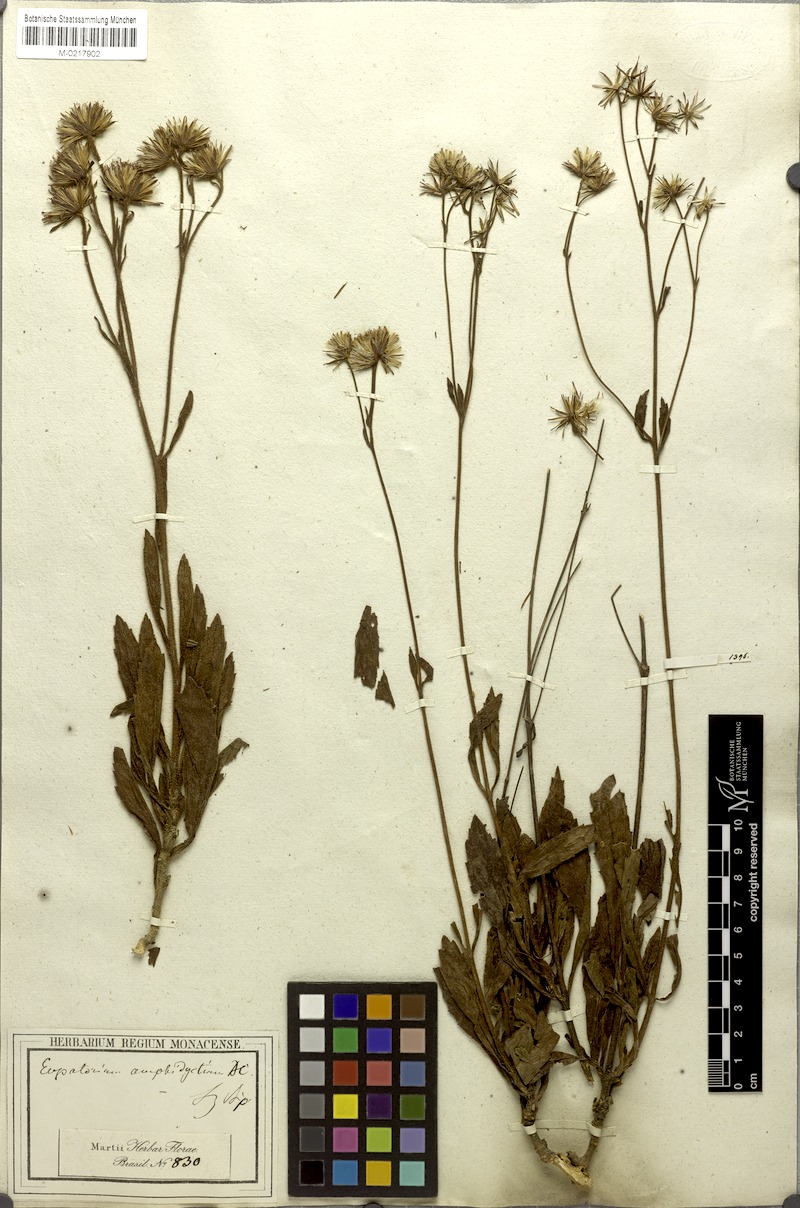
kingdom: Plantae
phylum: Tracheophyta
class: Magnoliopsida
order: Asterales
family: Asteraceae
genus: Heterocondylus
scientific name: Heterocondylus amphidictyus
